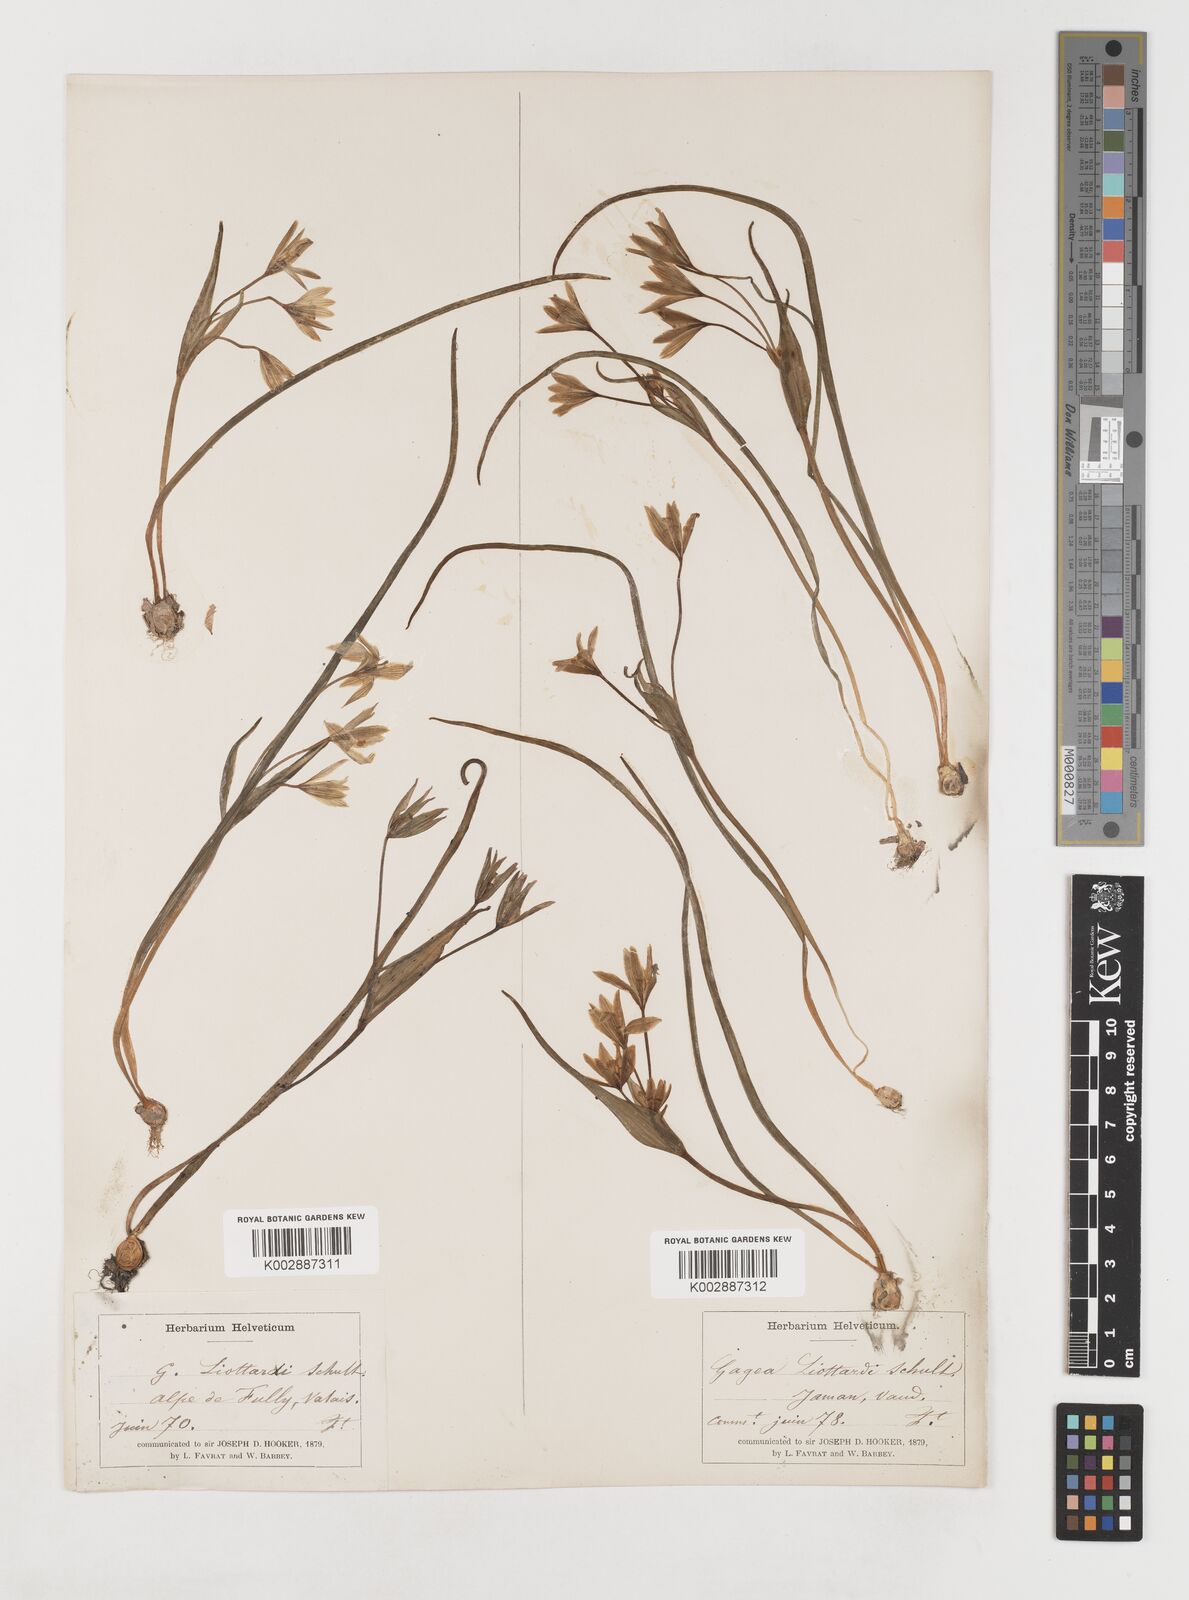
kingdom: Plantae
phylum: Tracheophyta
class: Liliopsida
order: Liliales
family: Liliaceae
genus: Gagea
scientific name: Gagea bohemica
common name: Early star-of-bethlehem
